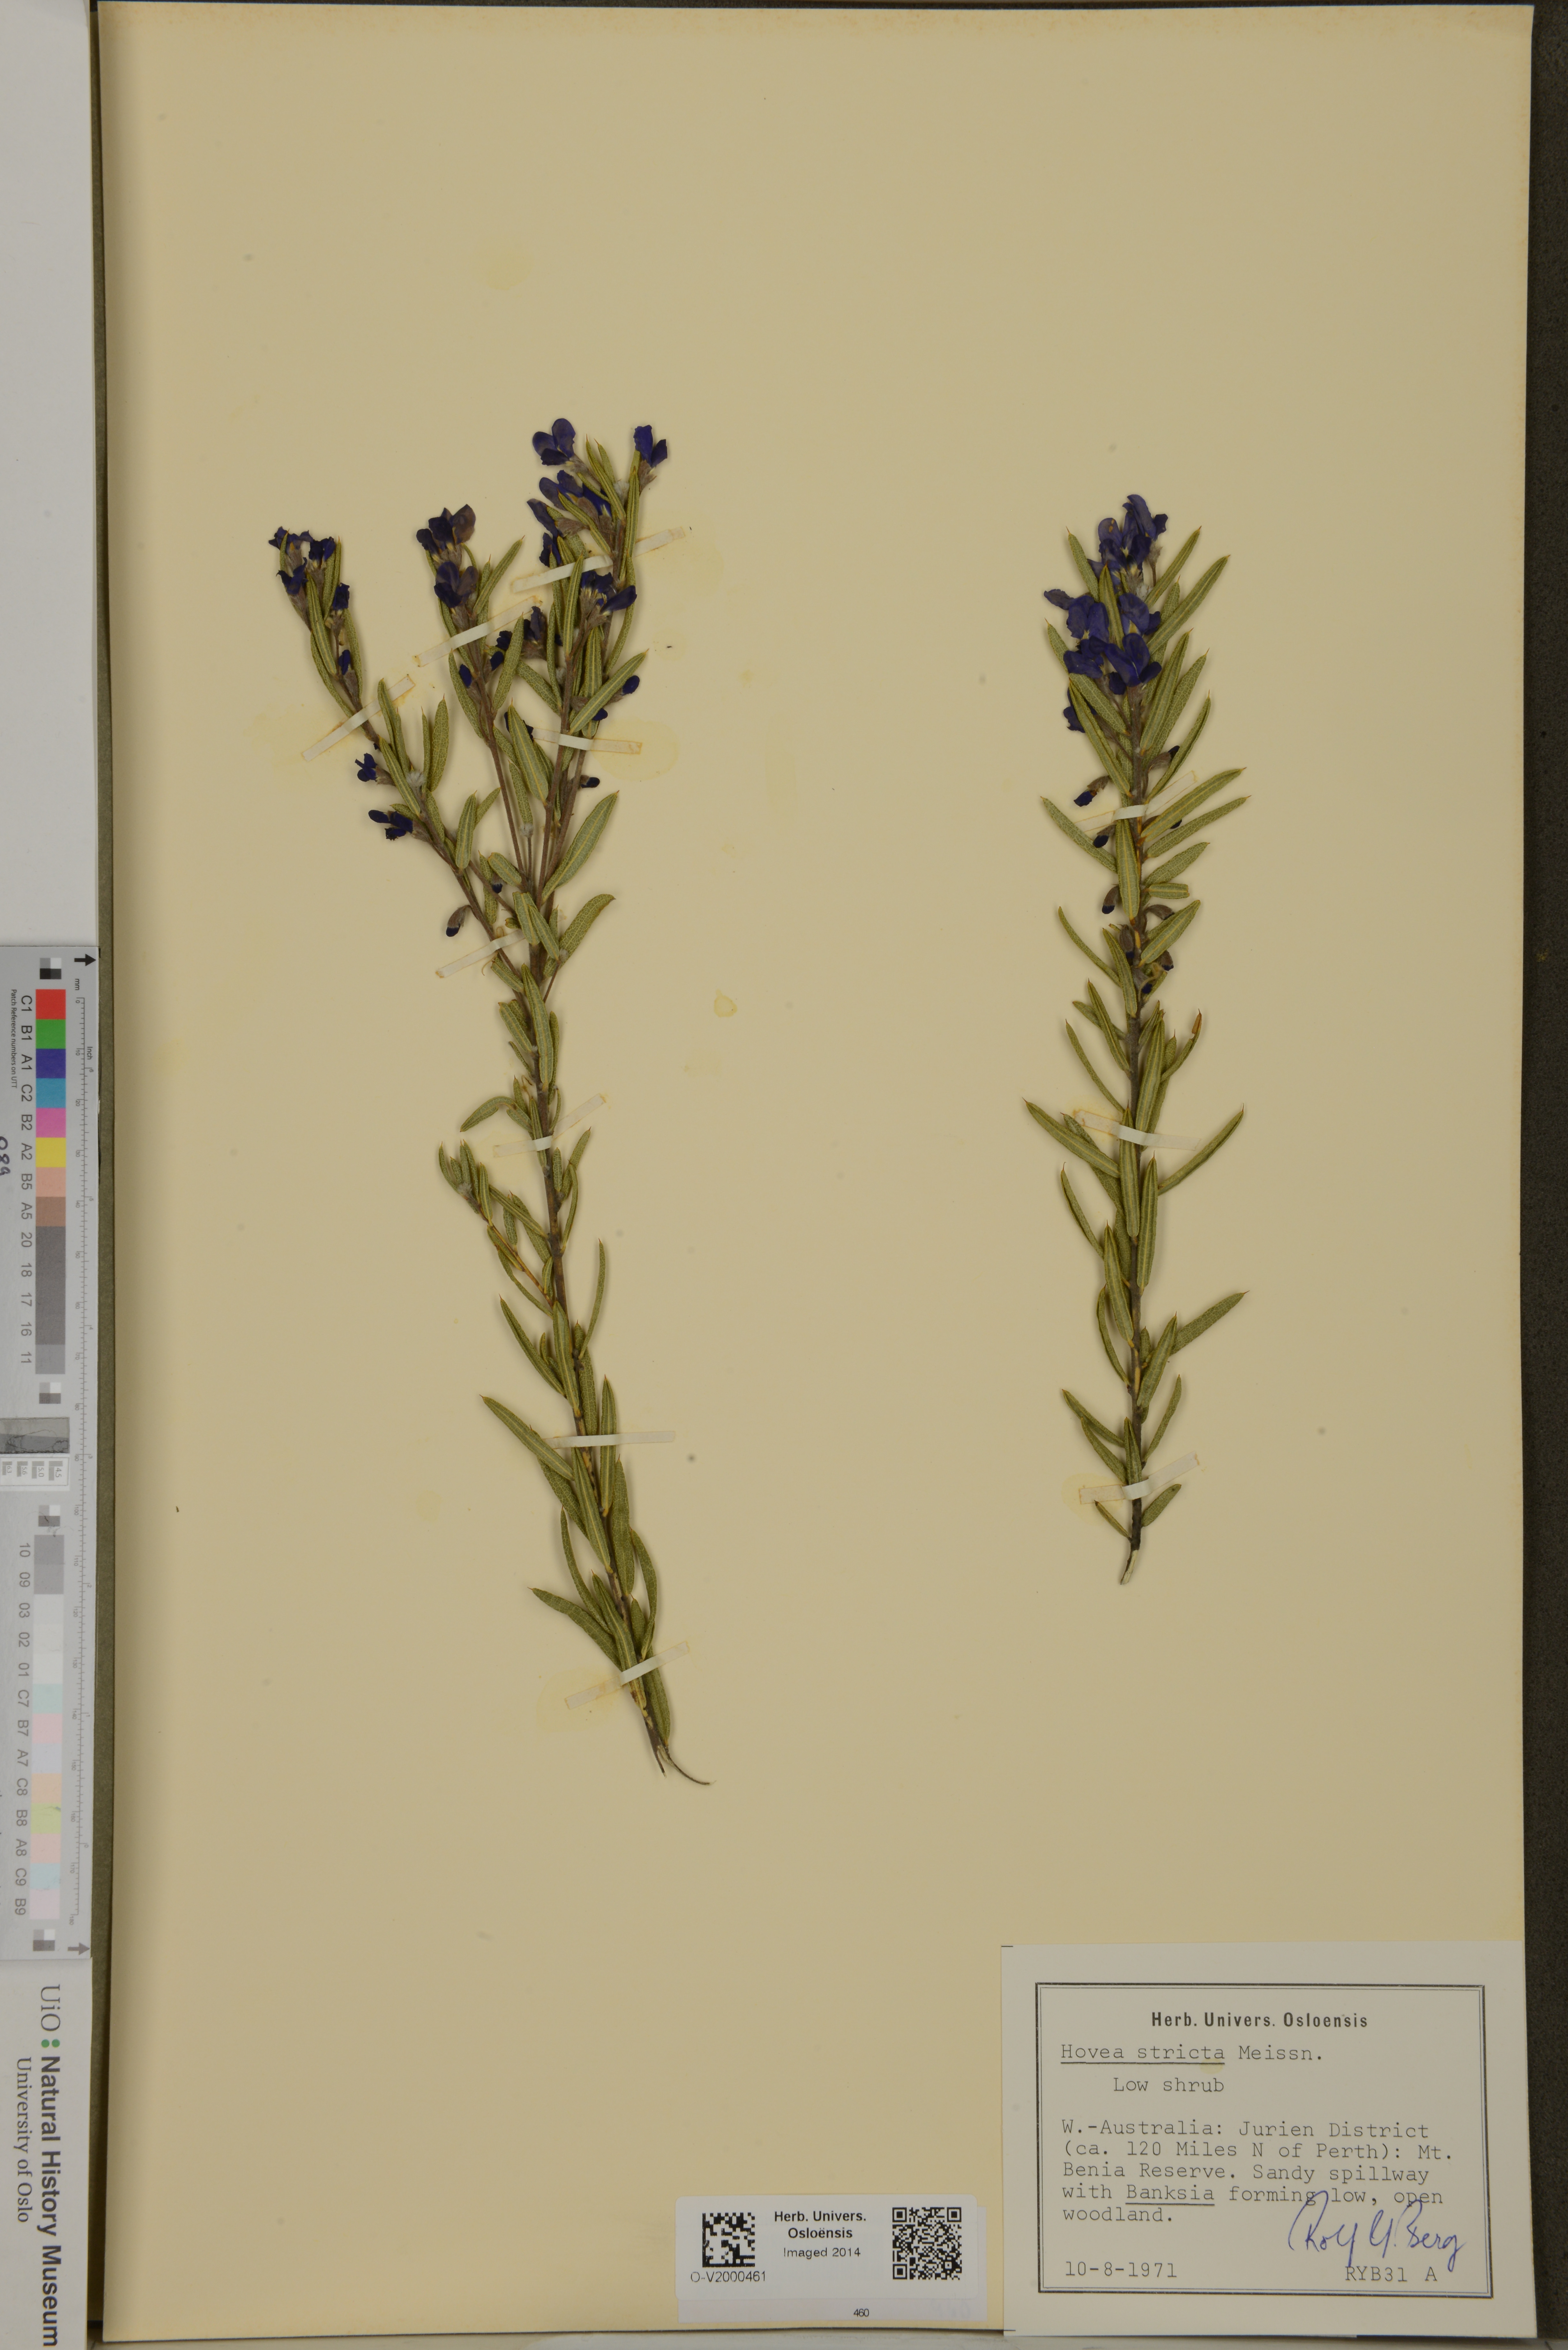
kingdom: Plantae
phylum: Tracheophyta
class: Magnoliopsida
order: Fabales
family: Fabaceae
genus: Hovea
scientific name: Hovea stricta
